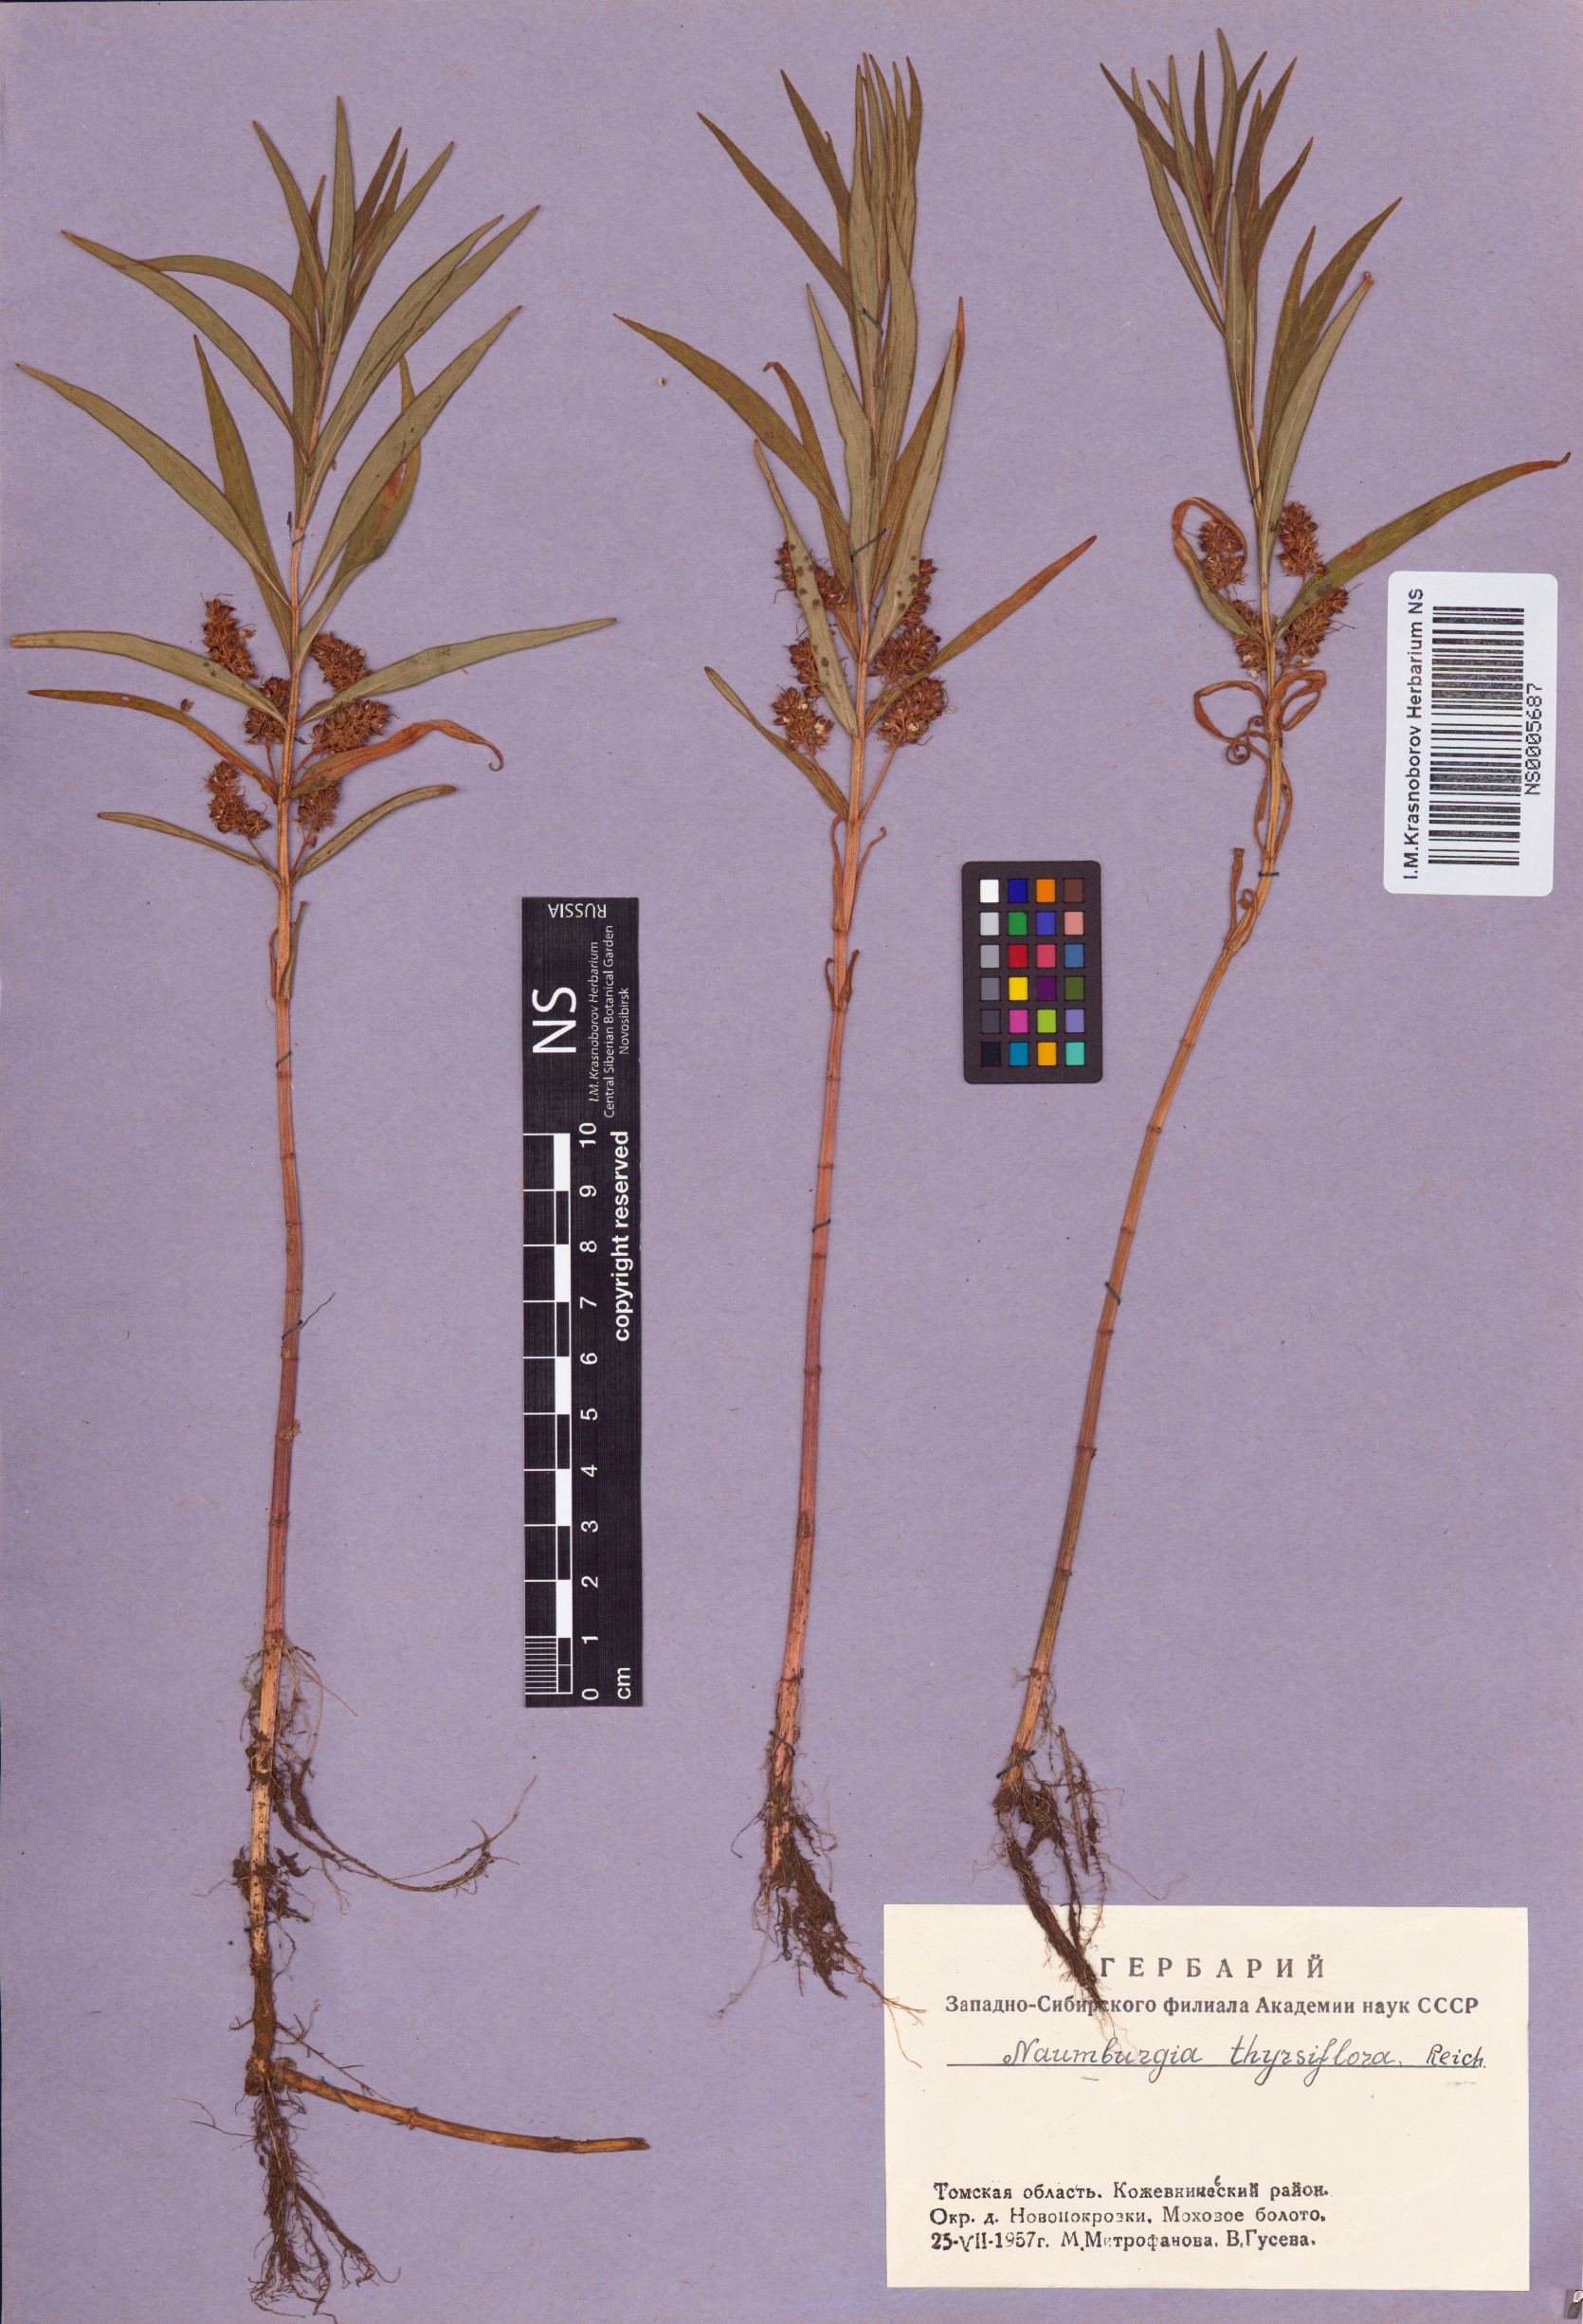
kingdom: Plantae
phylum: Tracheophyta
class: Magnoliopsida
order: Ericales
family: Primulaceae
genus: Lysimachia
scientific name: Lysimachia thyrsiflora
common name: Tufted loosestrife
